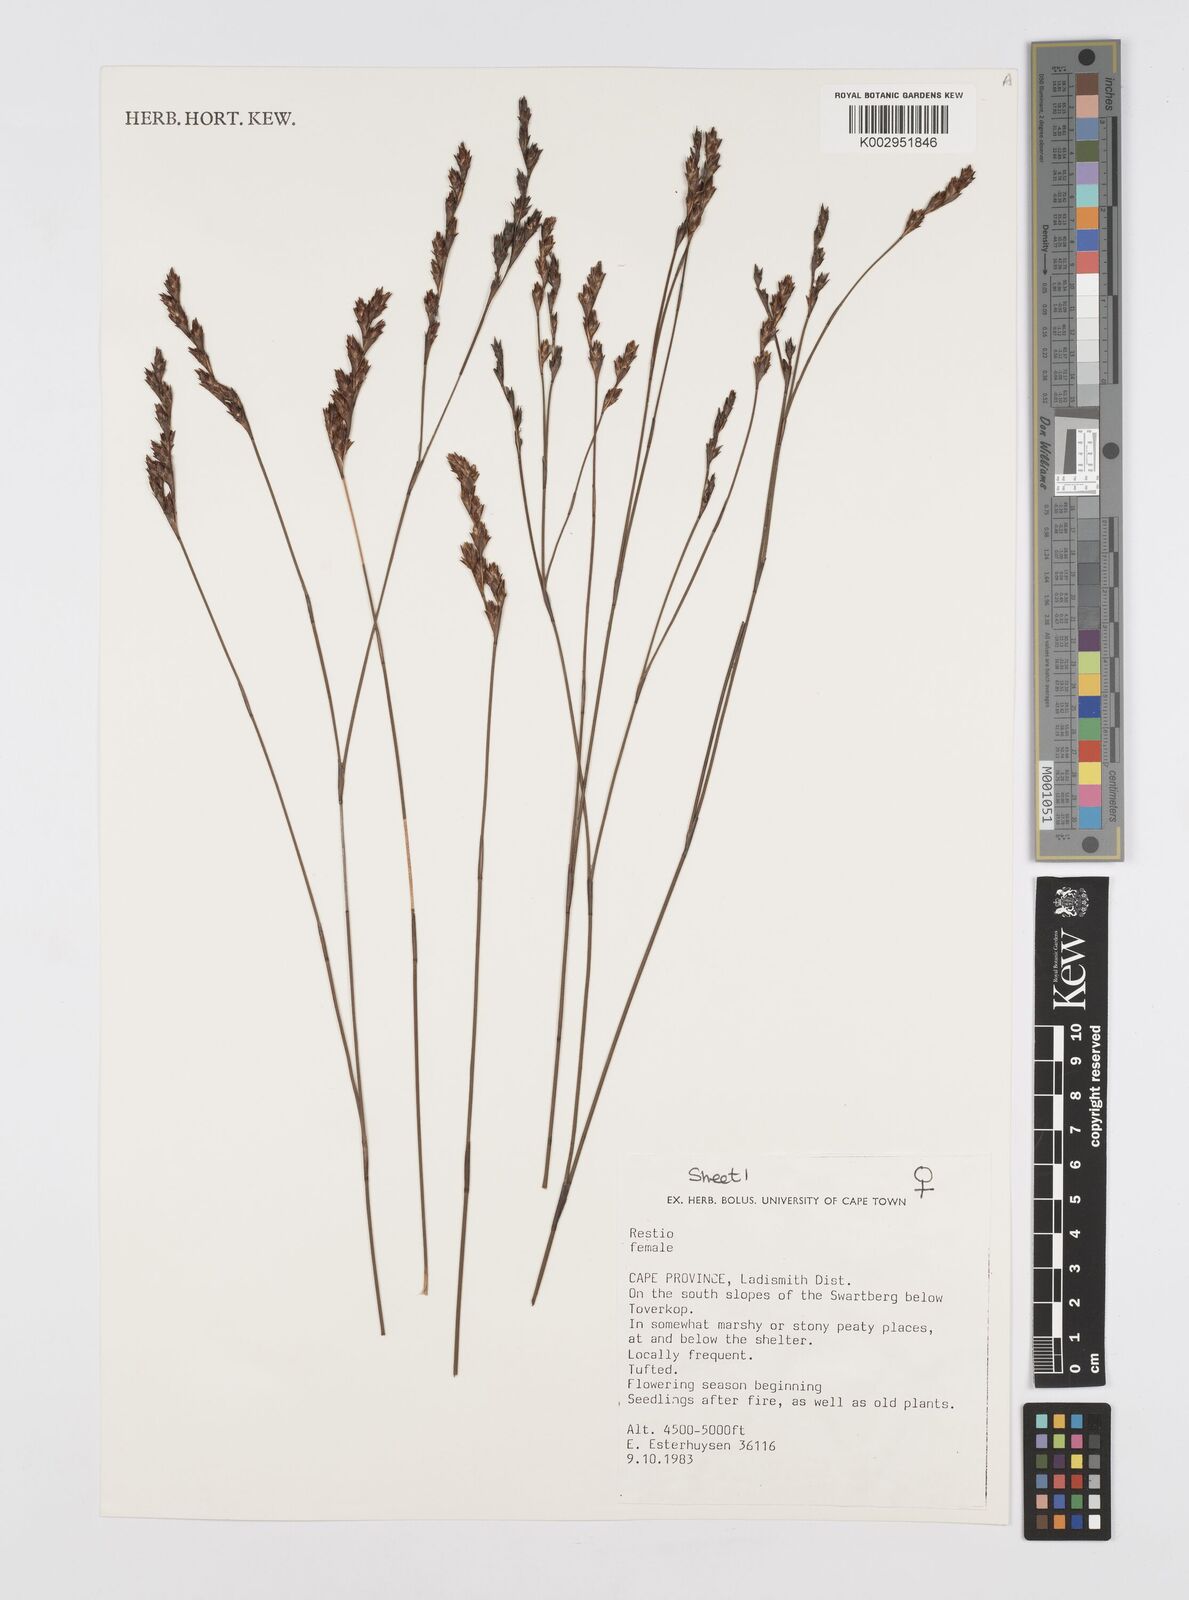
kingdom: Plantae
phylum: Tracheophyta
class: Liliopsida
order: Poales
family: Restionaceae
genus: Restio
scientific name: Restio
